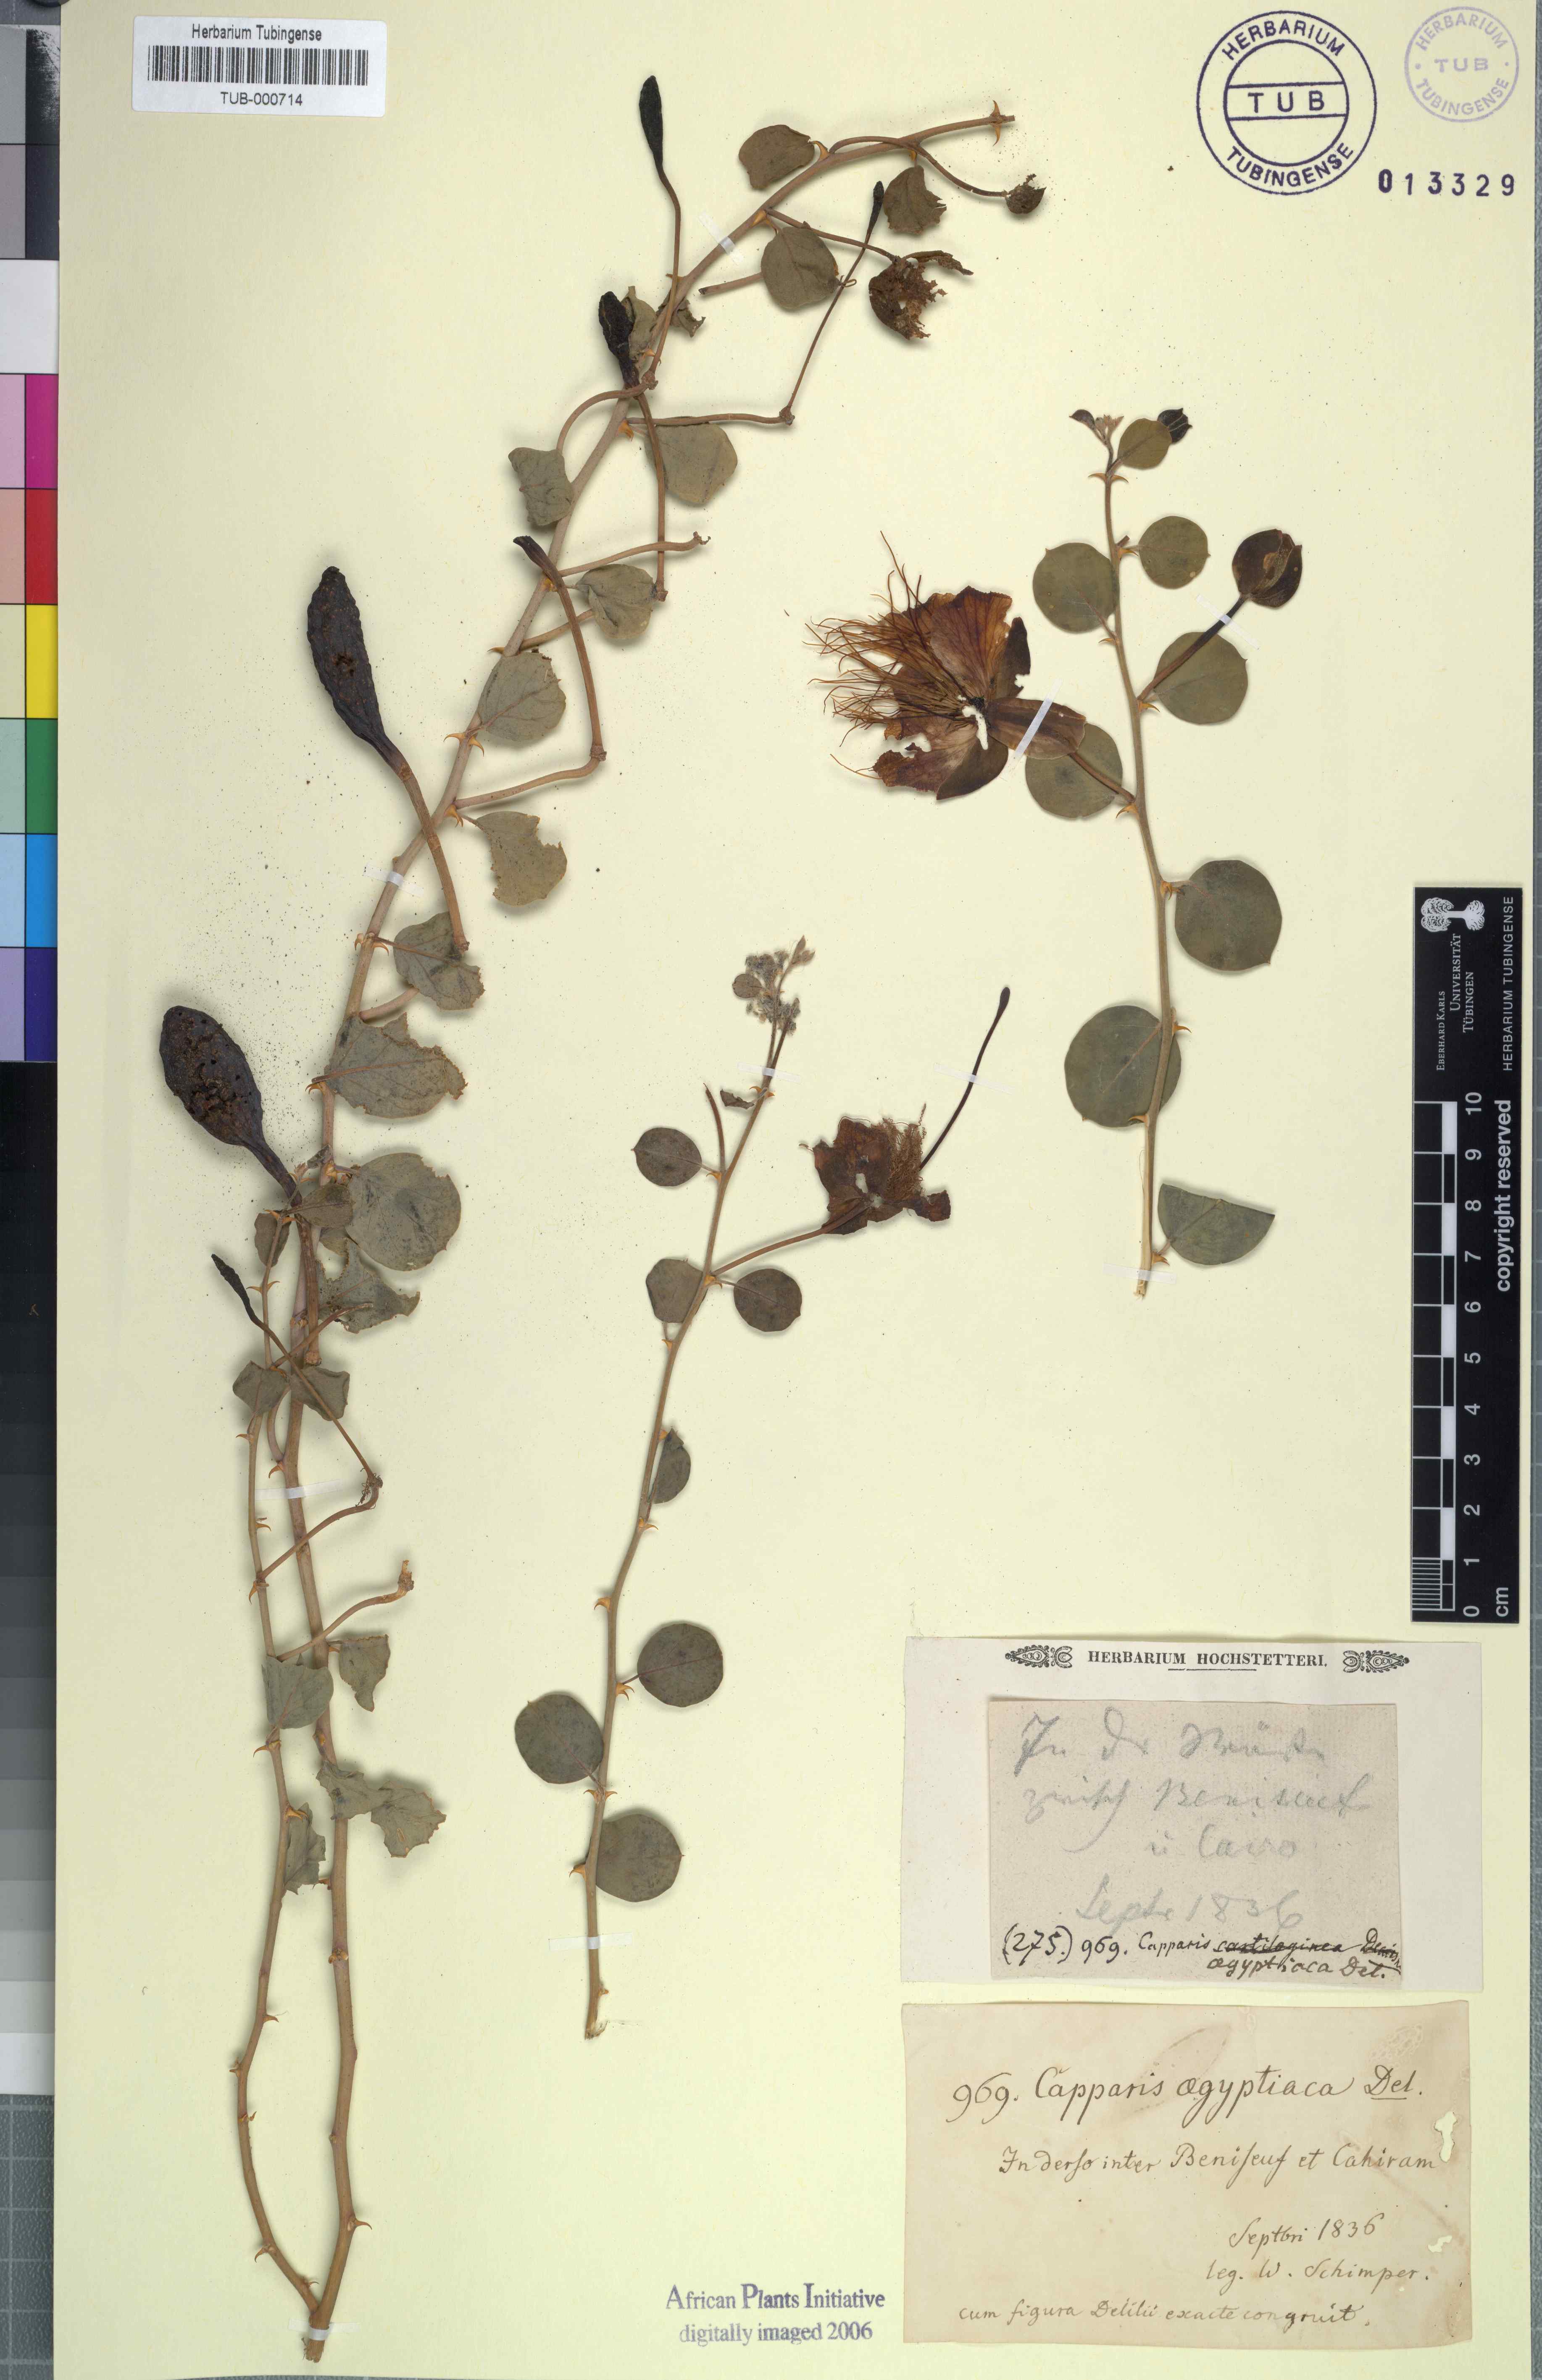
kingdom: Plantae
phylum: Tracheophyta
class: Magnoliopsida
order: Brassicales
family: Capparaceae
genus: Capparis
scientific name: Capparis spinosa
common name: Caper
